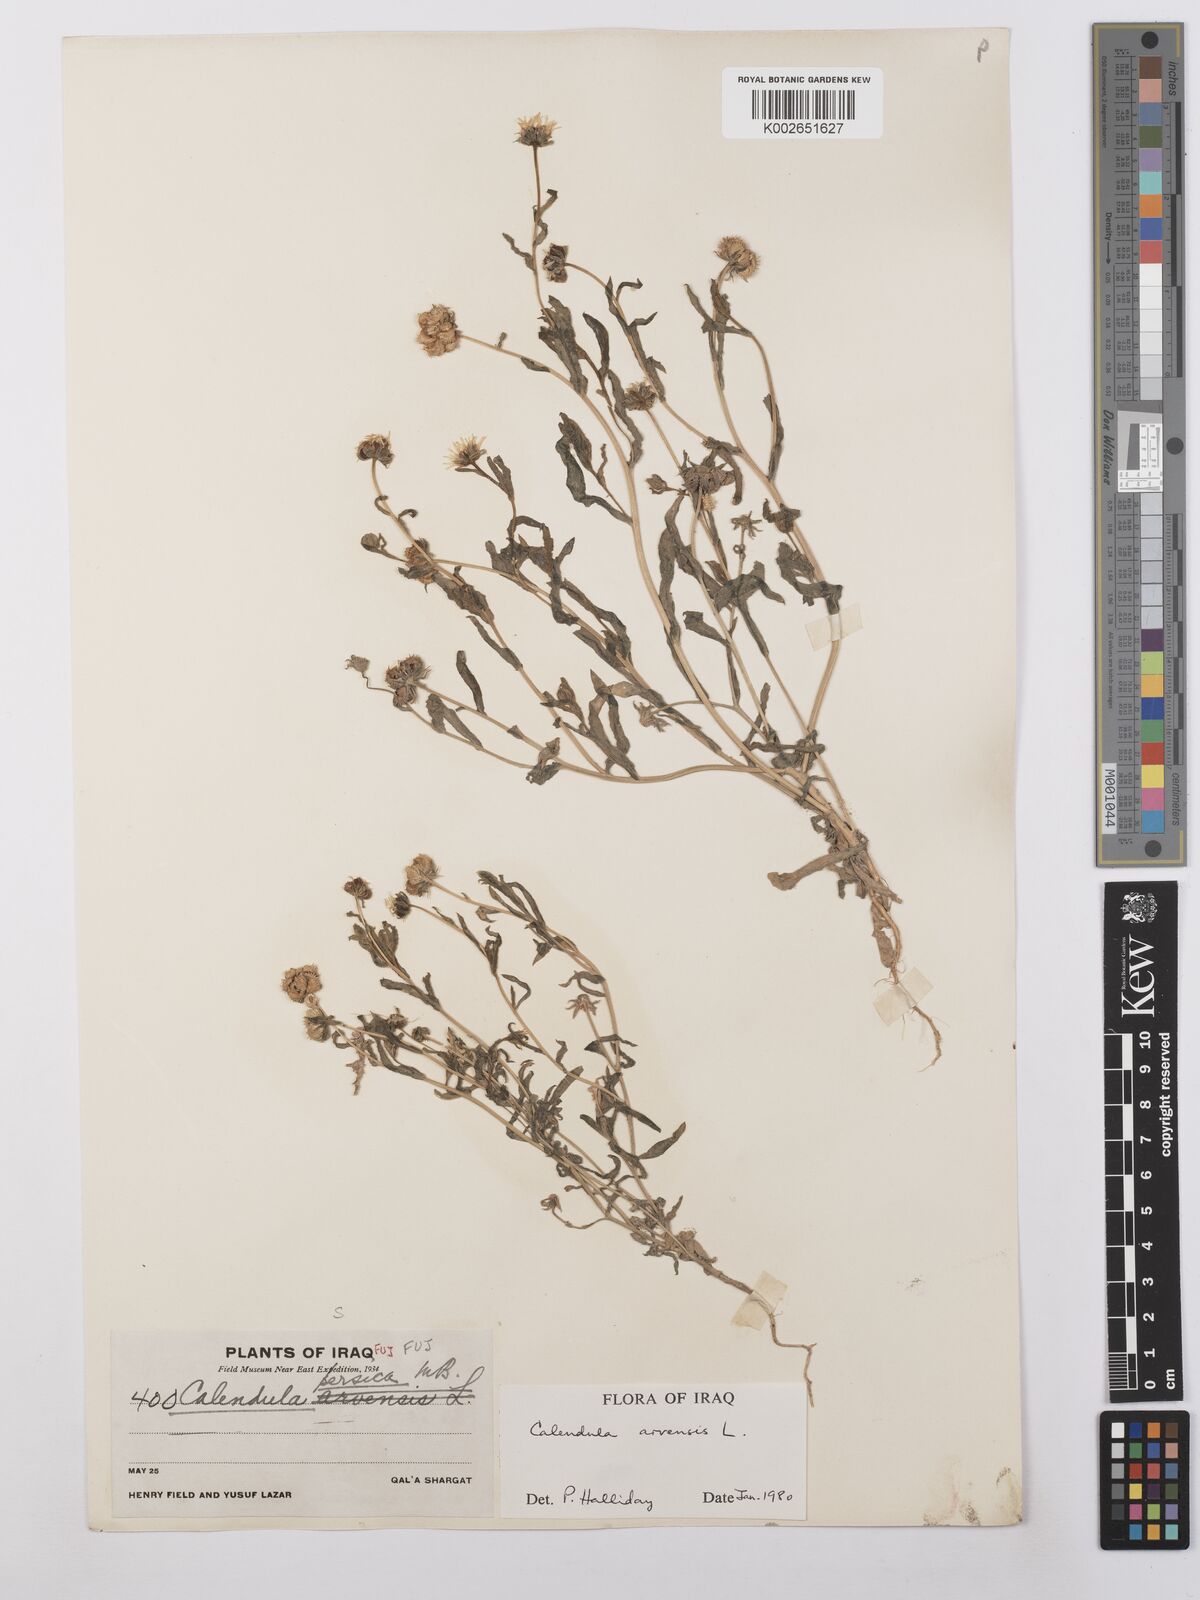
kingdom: Plantae
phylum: Tracheophyta
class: Magnoliopsida
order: Asterales
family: Asteraceae
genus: Calendula
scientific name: Calendula arvensis
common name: Field marigold
